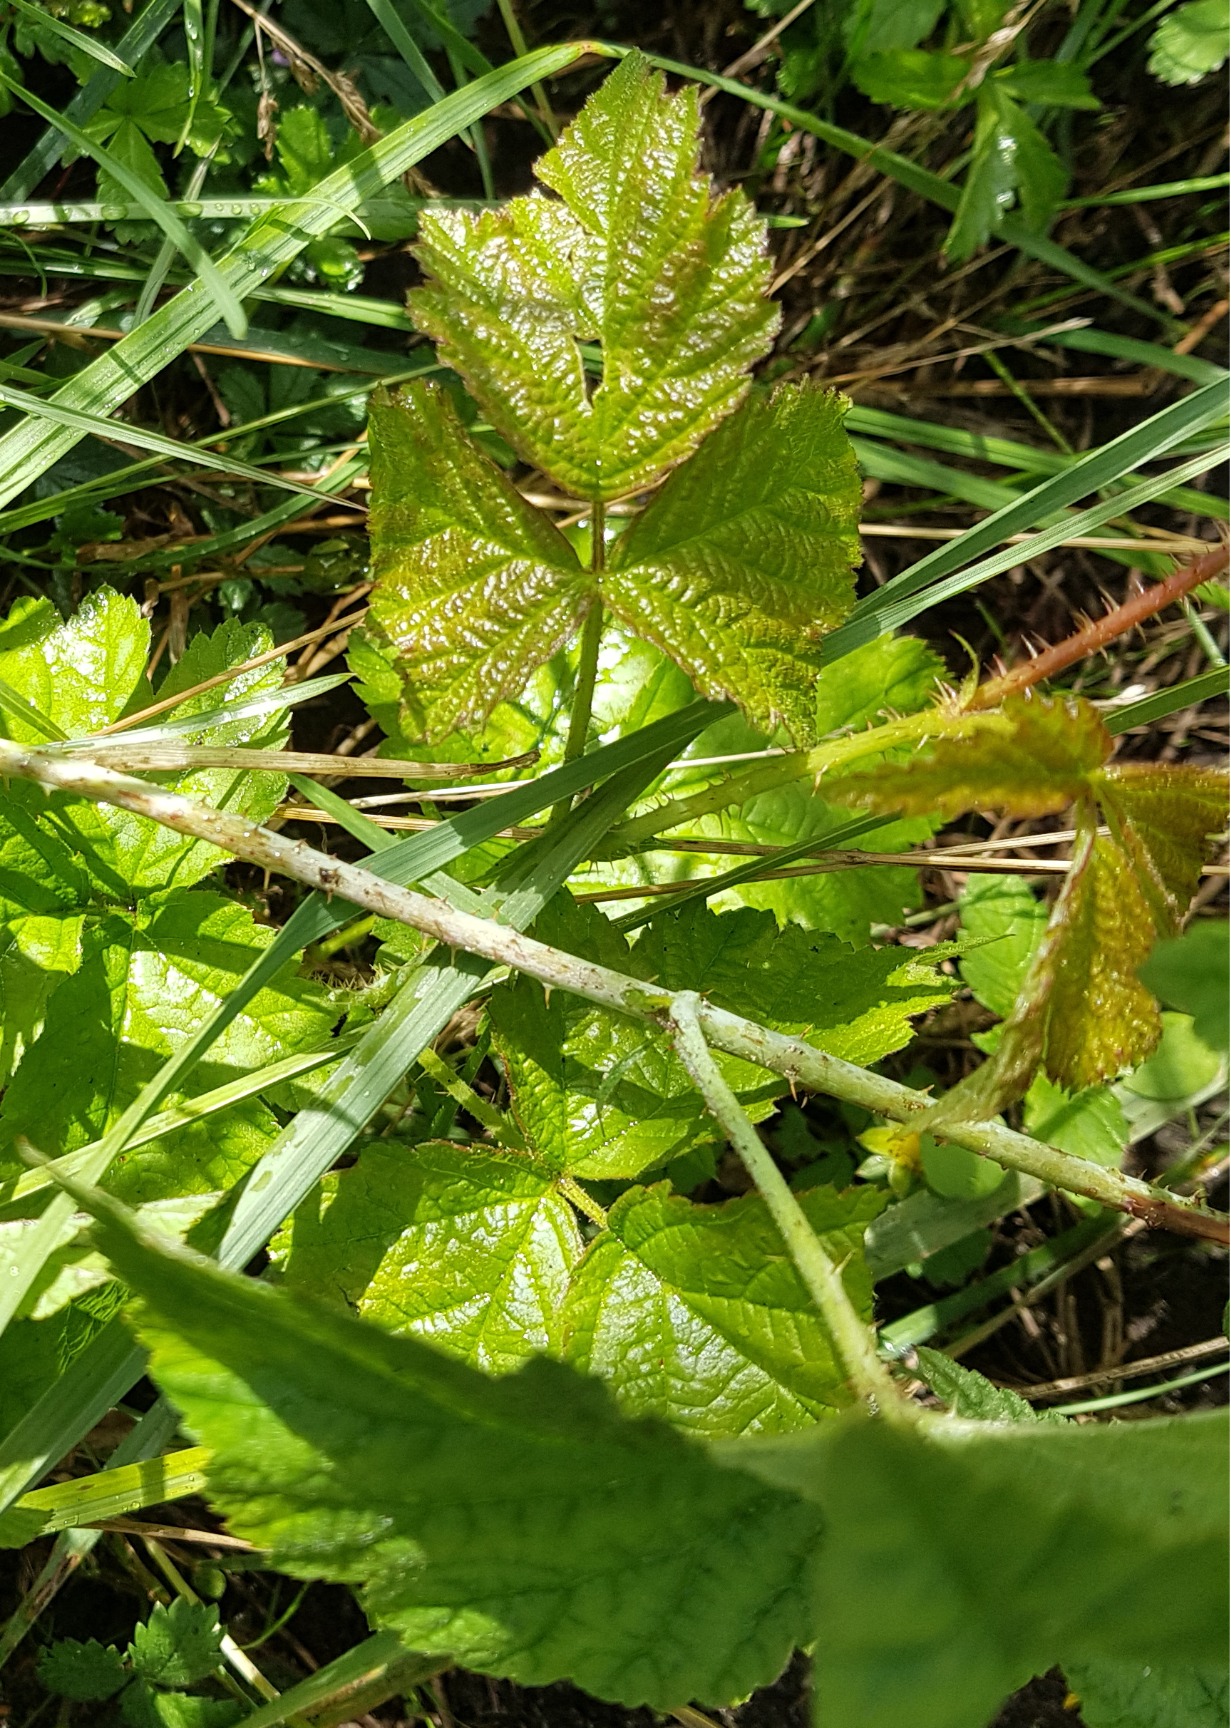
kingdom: Plantae
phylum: Tracheophyta
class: Magnoliopsida
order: Rosales
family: Rosaceae
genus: Rubus
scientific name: Rubus caesius
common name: Korbær
